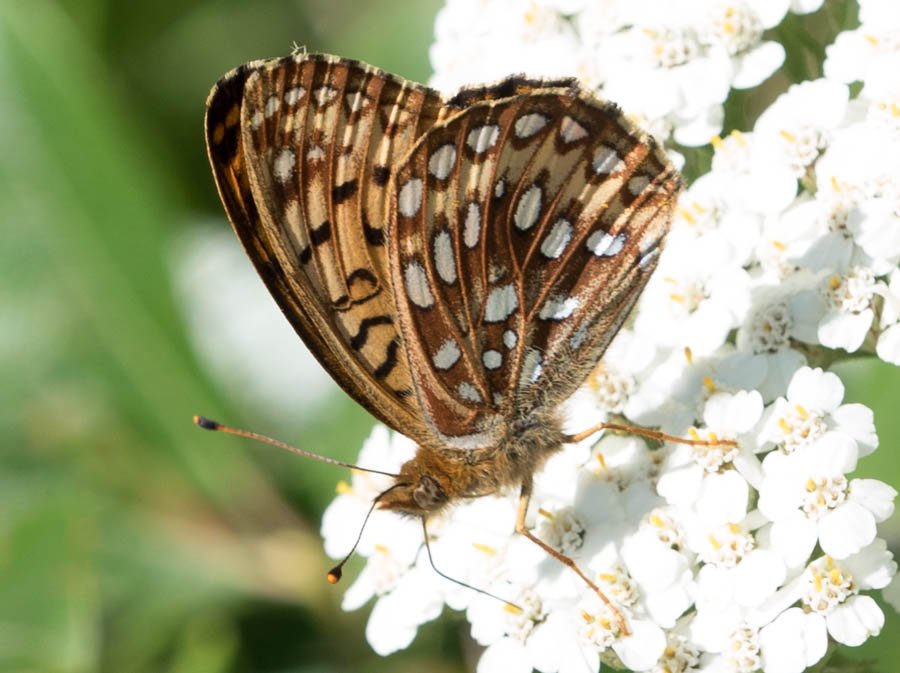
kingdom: Animalia
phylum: Arthropoda
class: Insecta
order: Lepidoptera
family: Nymphalidae
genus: Speyeria
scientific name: Speyeria atlantis
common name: Atlantis Fritillary
